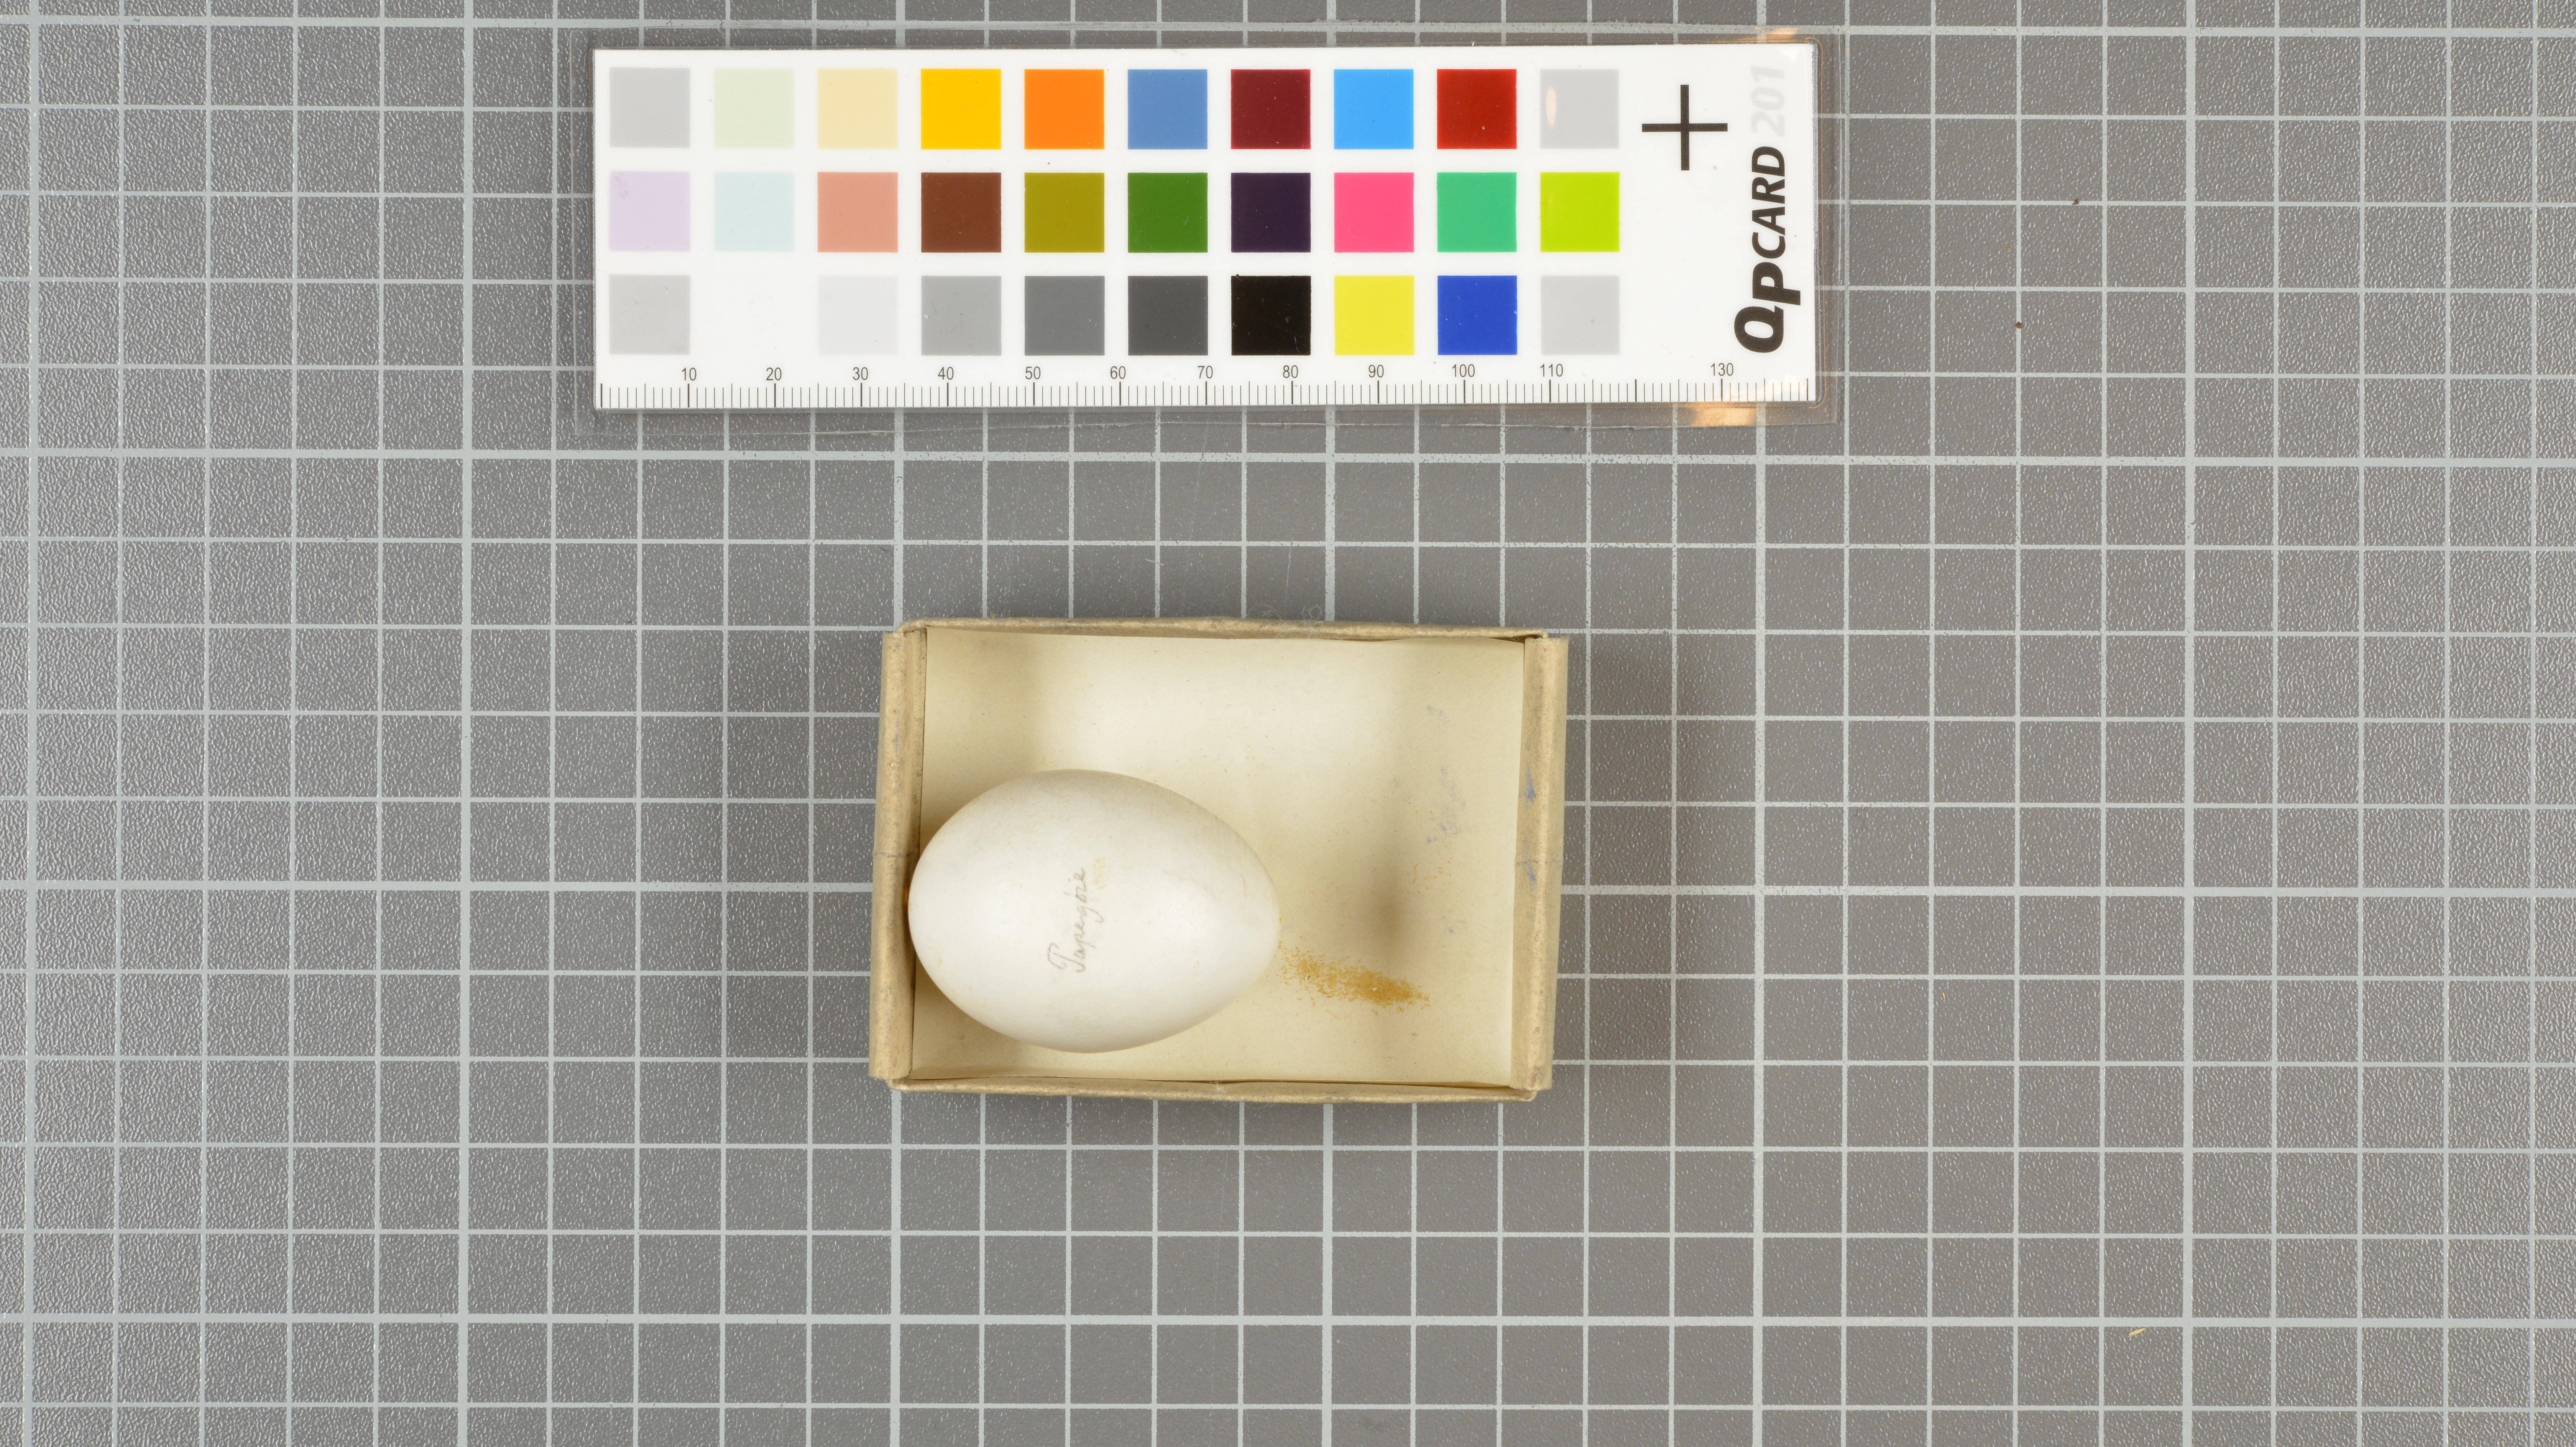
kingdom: Animalia
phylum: Chordata
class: Aves
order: Psittaciformes
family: Psittacidae
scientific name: Psittacidae
